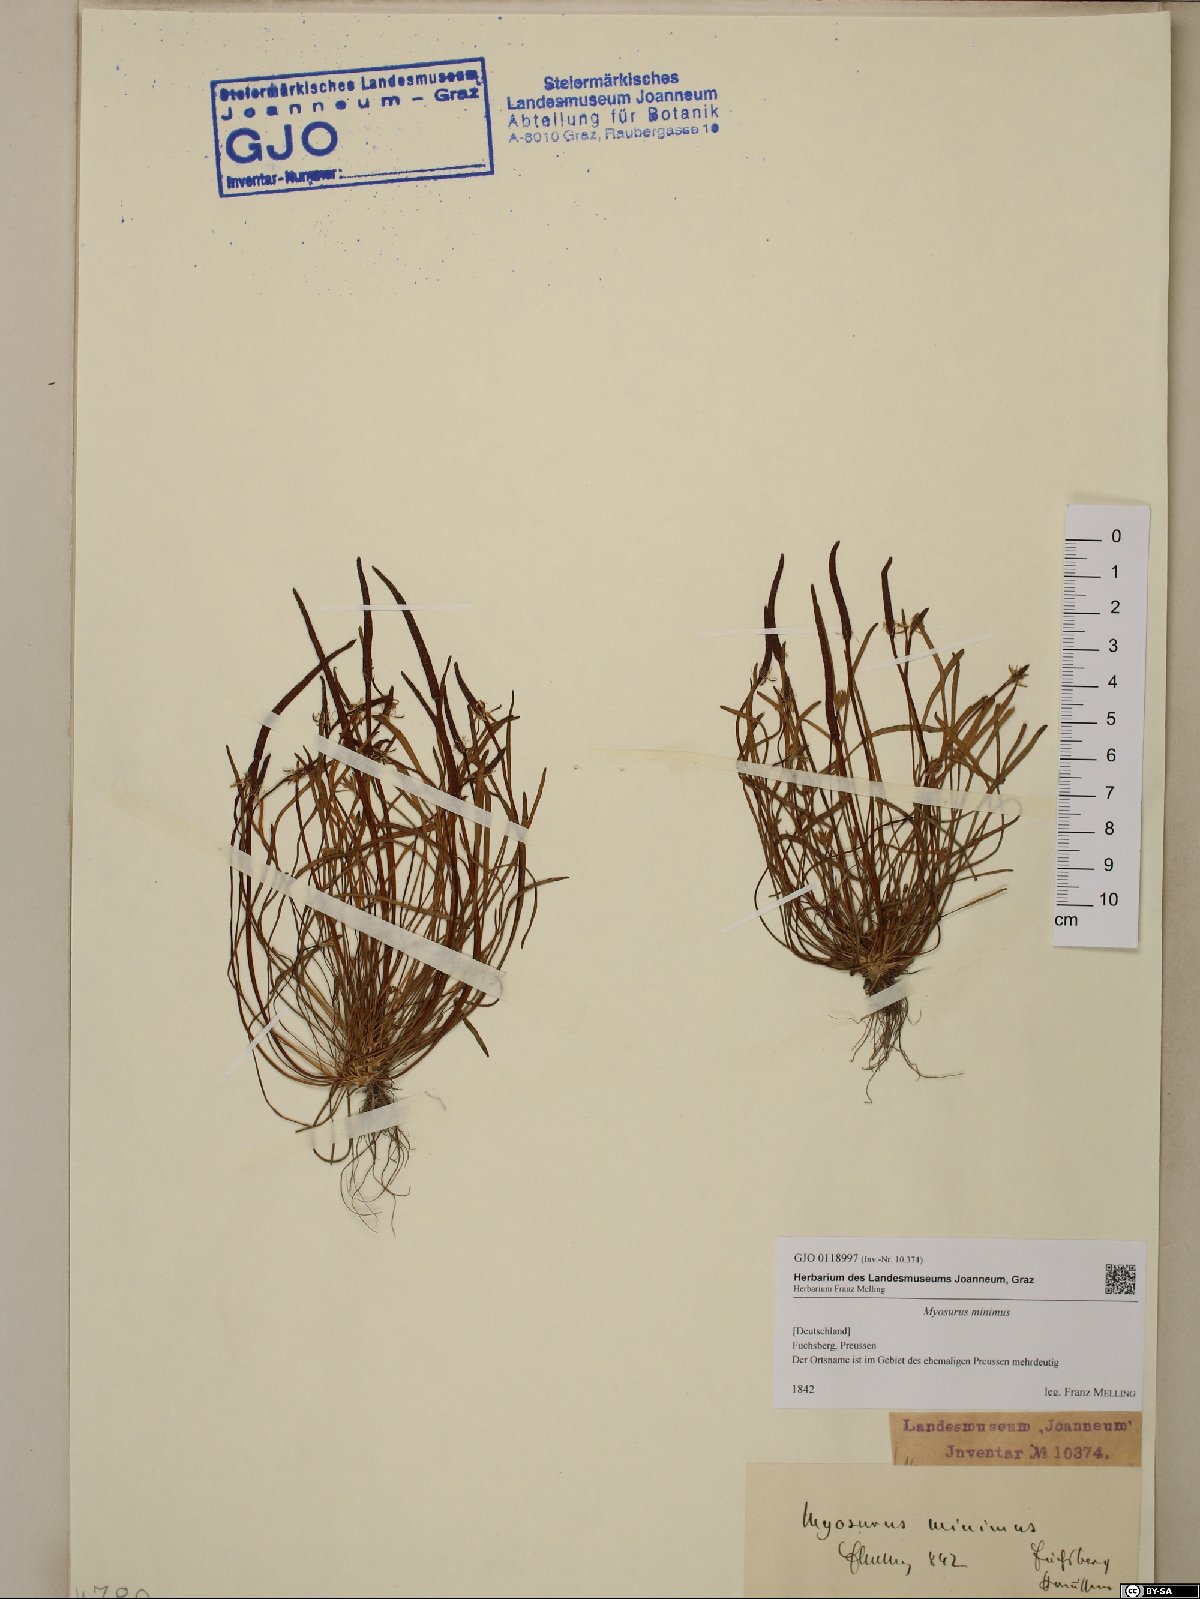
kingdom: Plantae
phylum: Tracheophyta
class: Magnoliopsida
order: Ranunculales
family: Ranunculaceae
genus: Myosurus
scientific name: Myosurus minimus
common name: Mousetail
